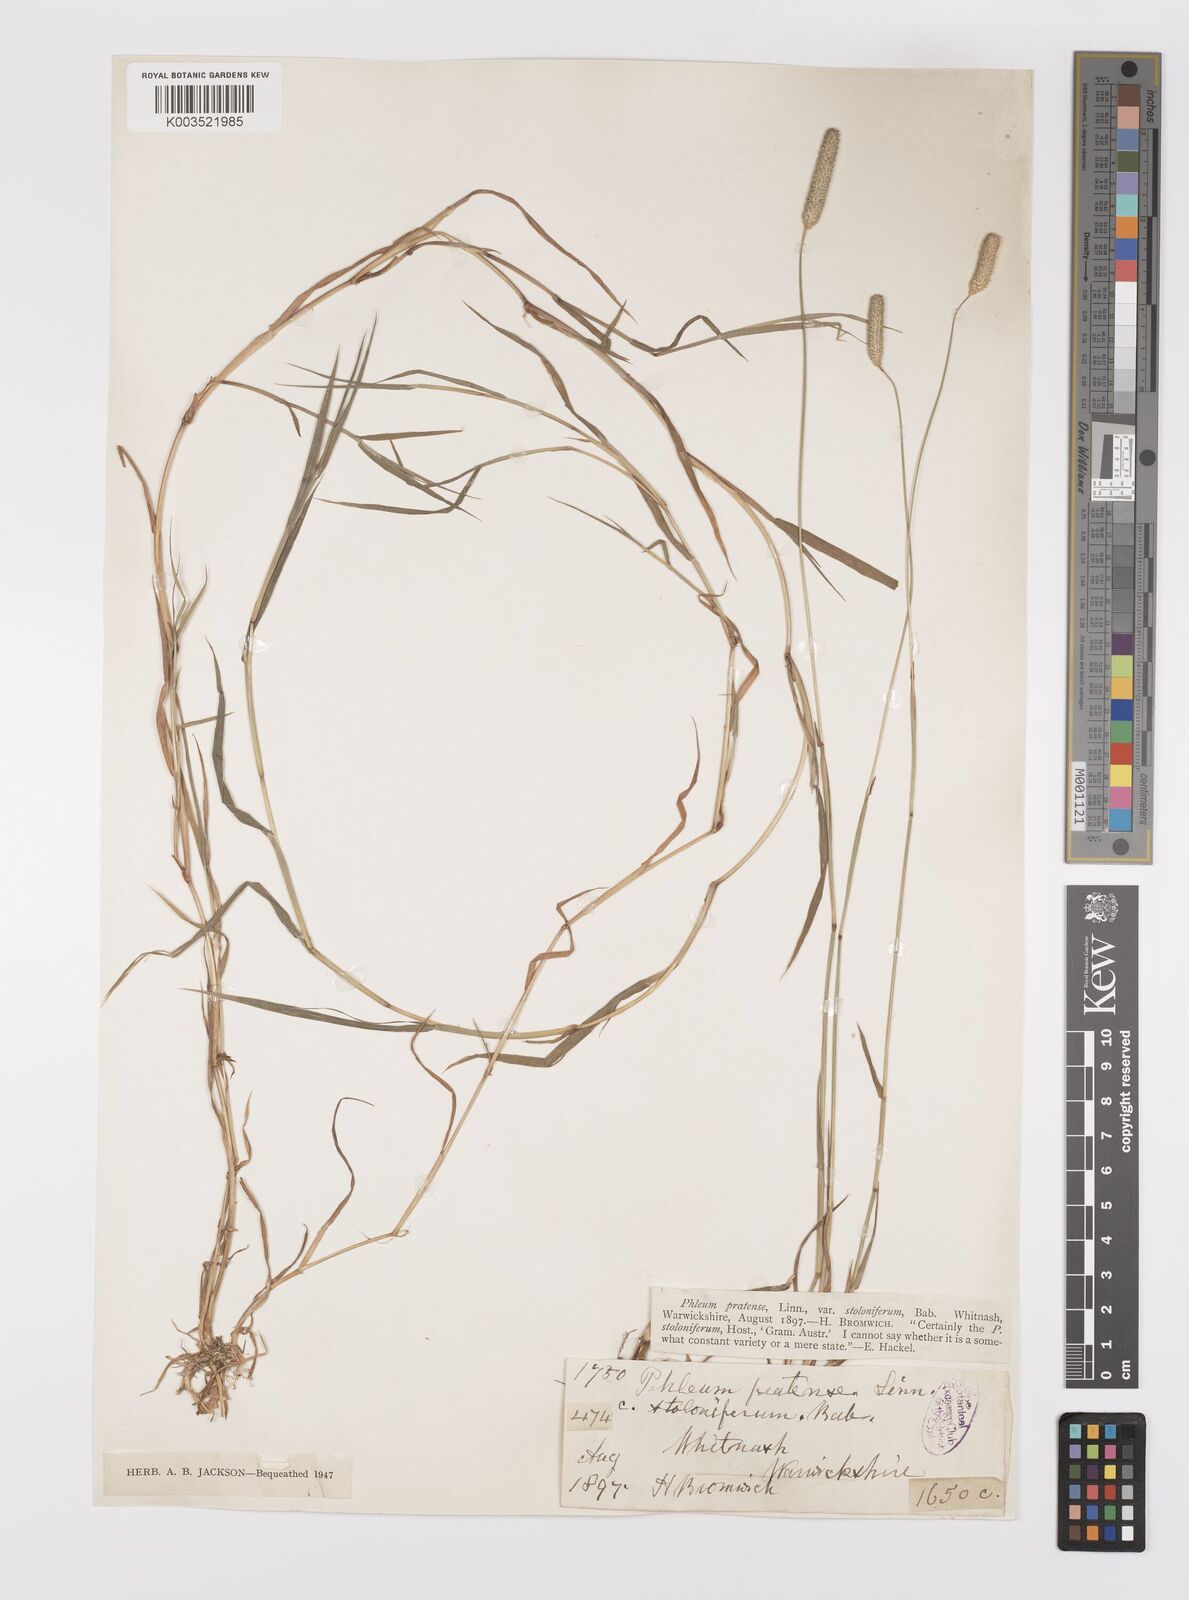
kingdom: Plantae
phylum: Tracheophyta
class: Liliopsida
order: Poales
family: Poaceae
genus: Phleum
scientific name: Phleum bertolonii
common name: Smaller cat's-tail
